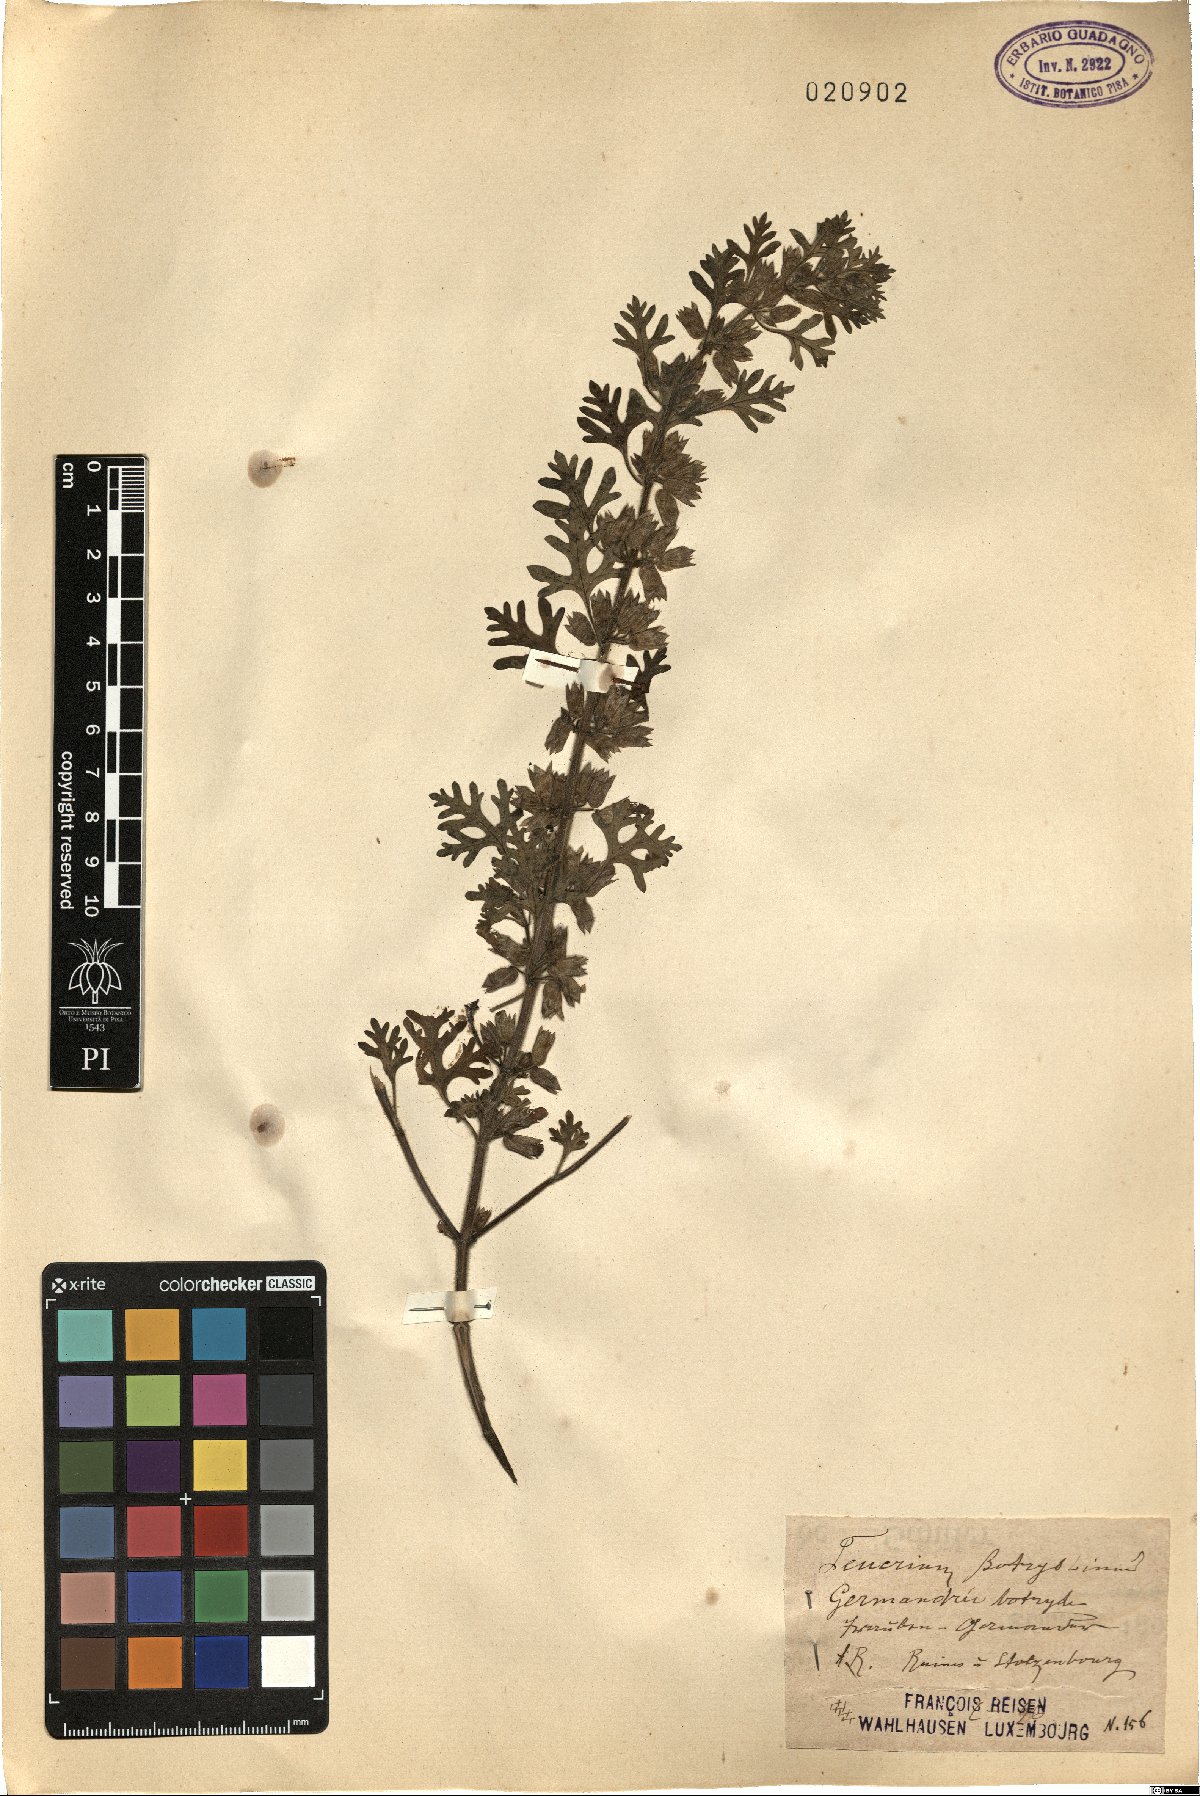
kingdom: Plantae
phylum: Tracheophyta
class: Magnoliopsida
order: Lamiales
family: Lamiaceae
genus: Teucrium
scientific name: Teucrium botrys
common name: Cut-leaved germander
